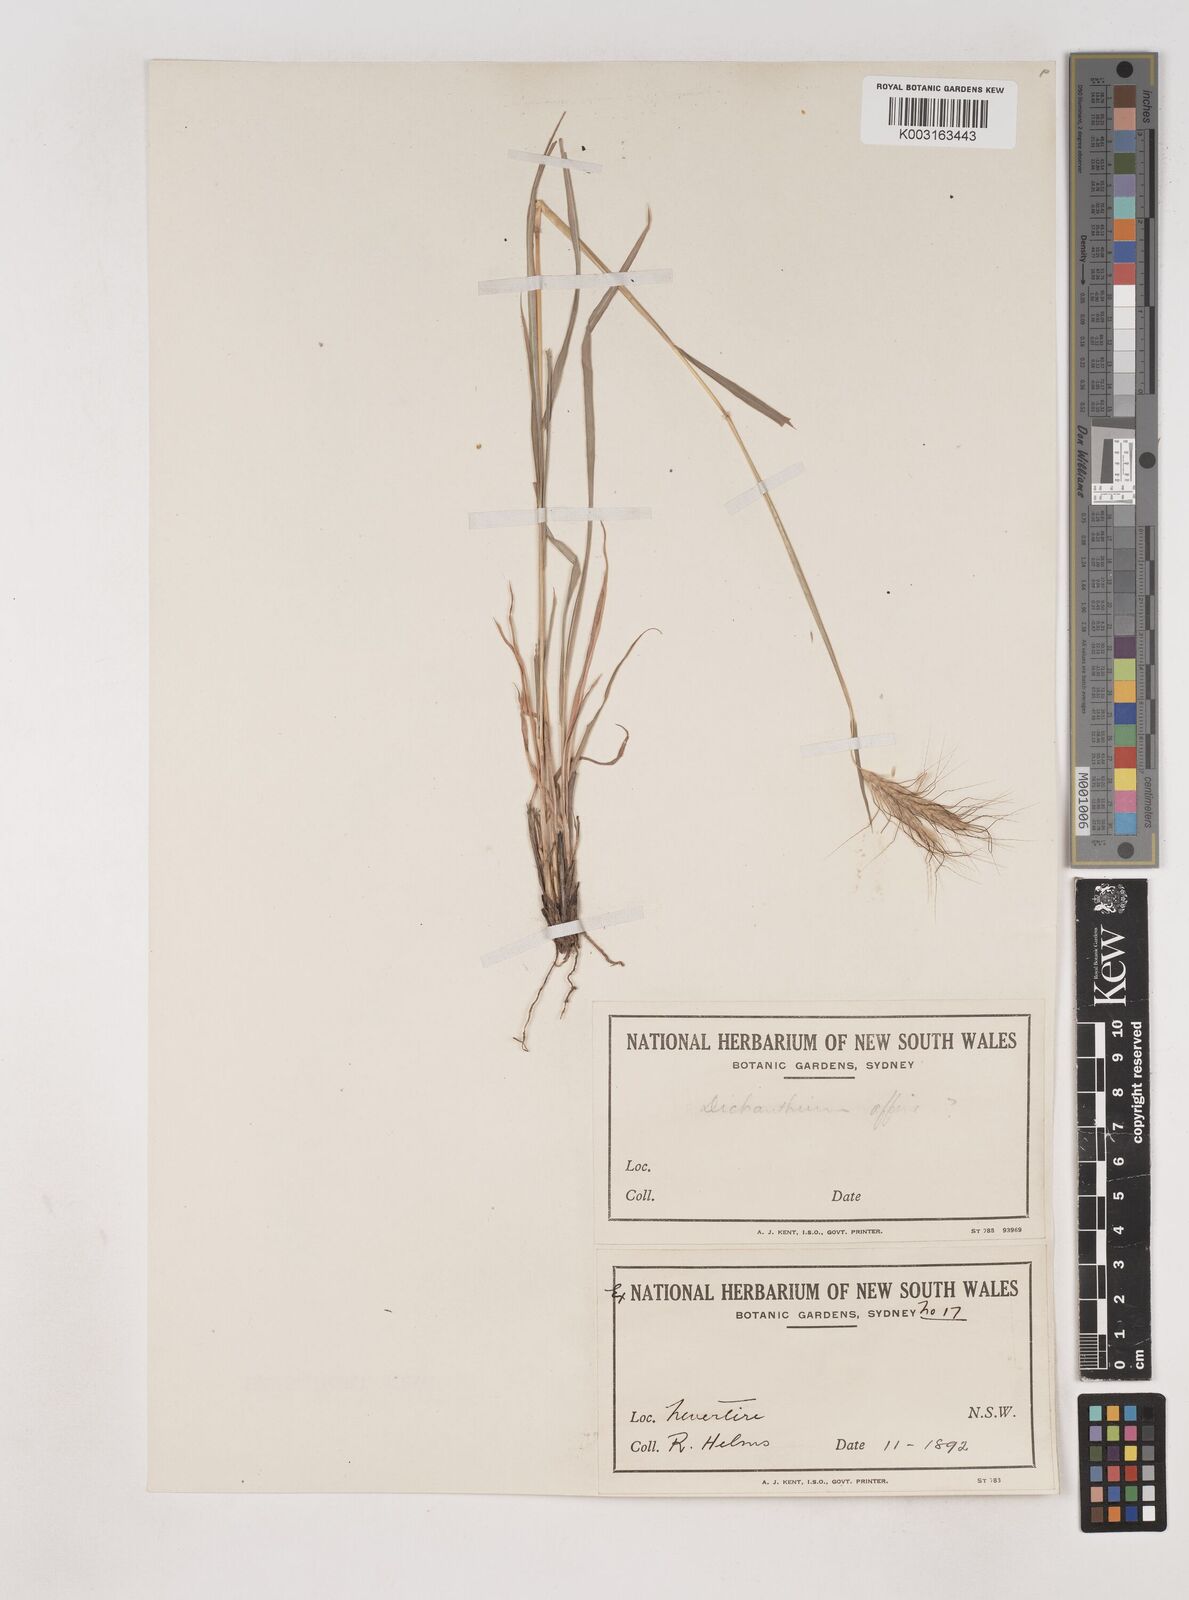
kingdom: Plantae
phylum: Tracheophyta
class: Liliopsida
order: Poales
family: Poaceae
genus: Dichanthium
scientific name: Dichanthium sericeum
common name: Silky bluestem
